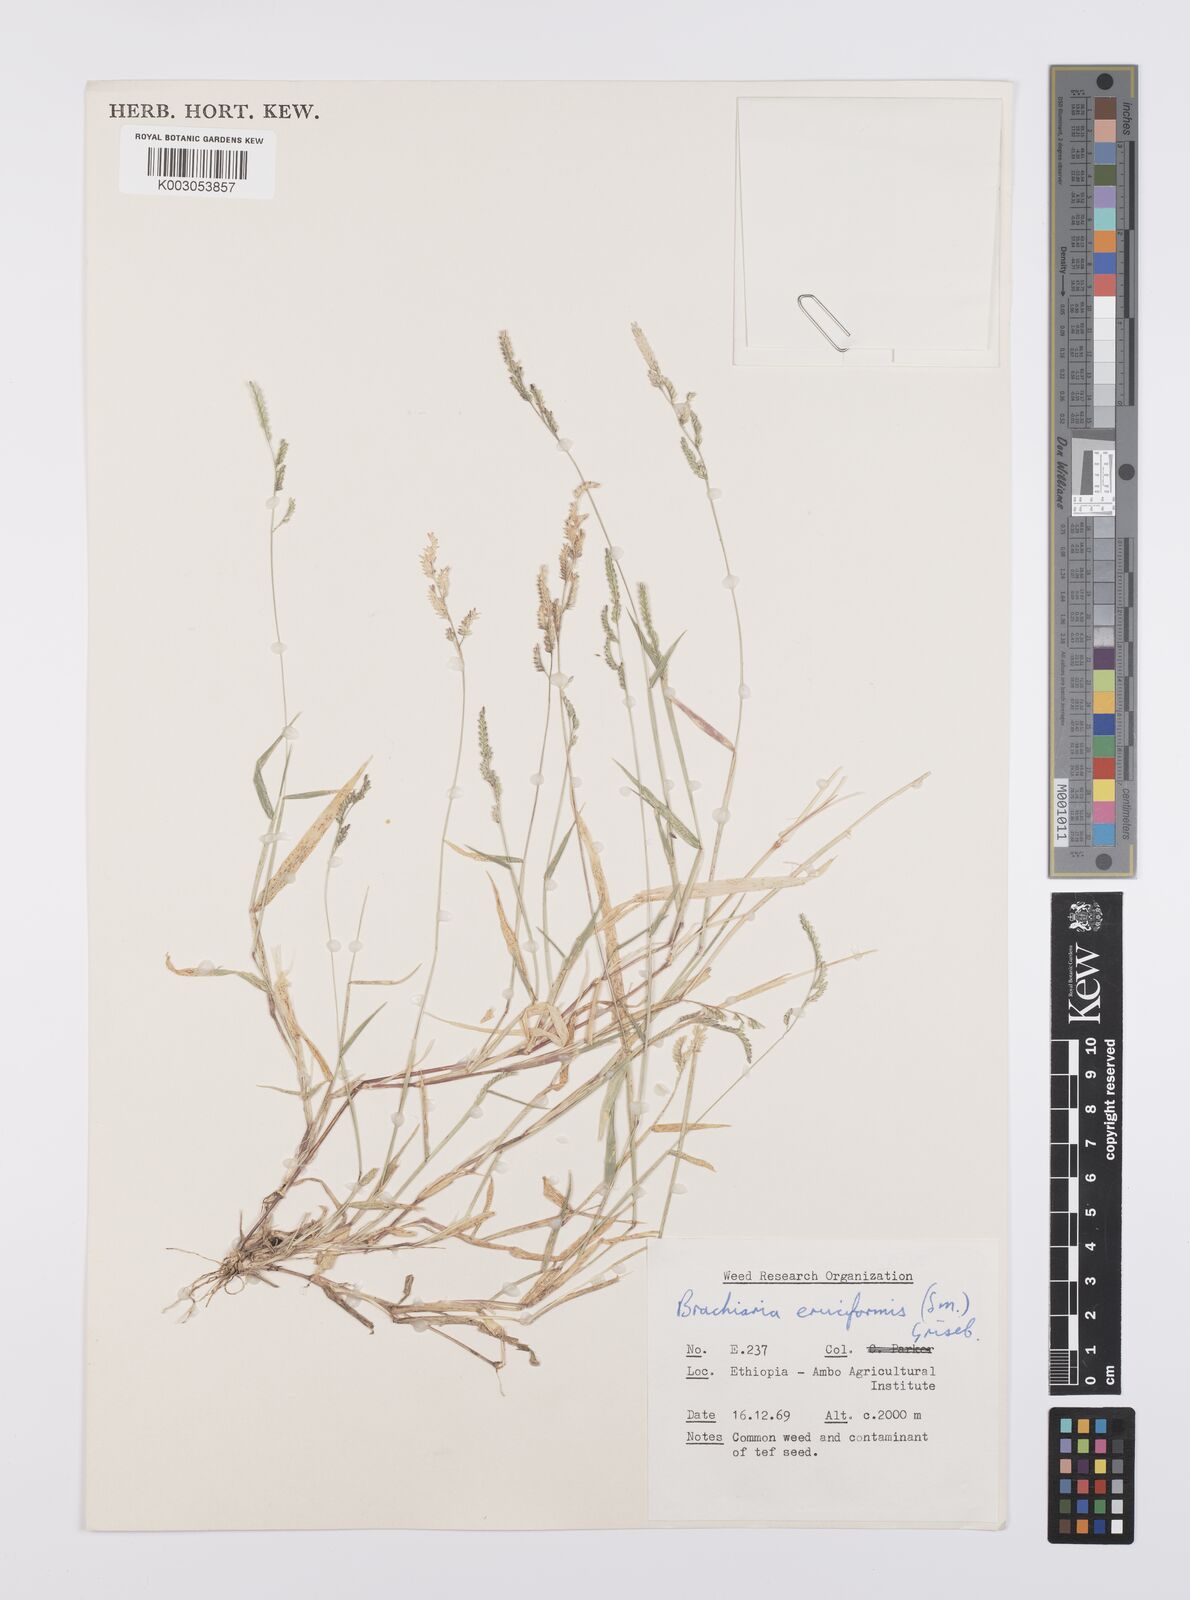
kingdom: Plantae
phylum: Tracheophyta
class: Liliopsida
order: Poales
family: Poaceae
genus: Moorochloa
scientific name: Moorochloa eruciformis
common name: Sweet signalgrass
